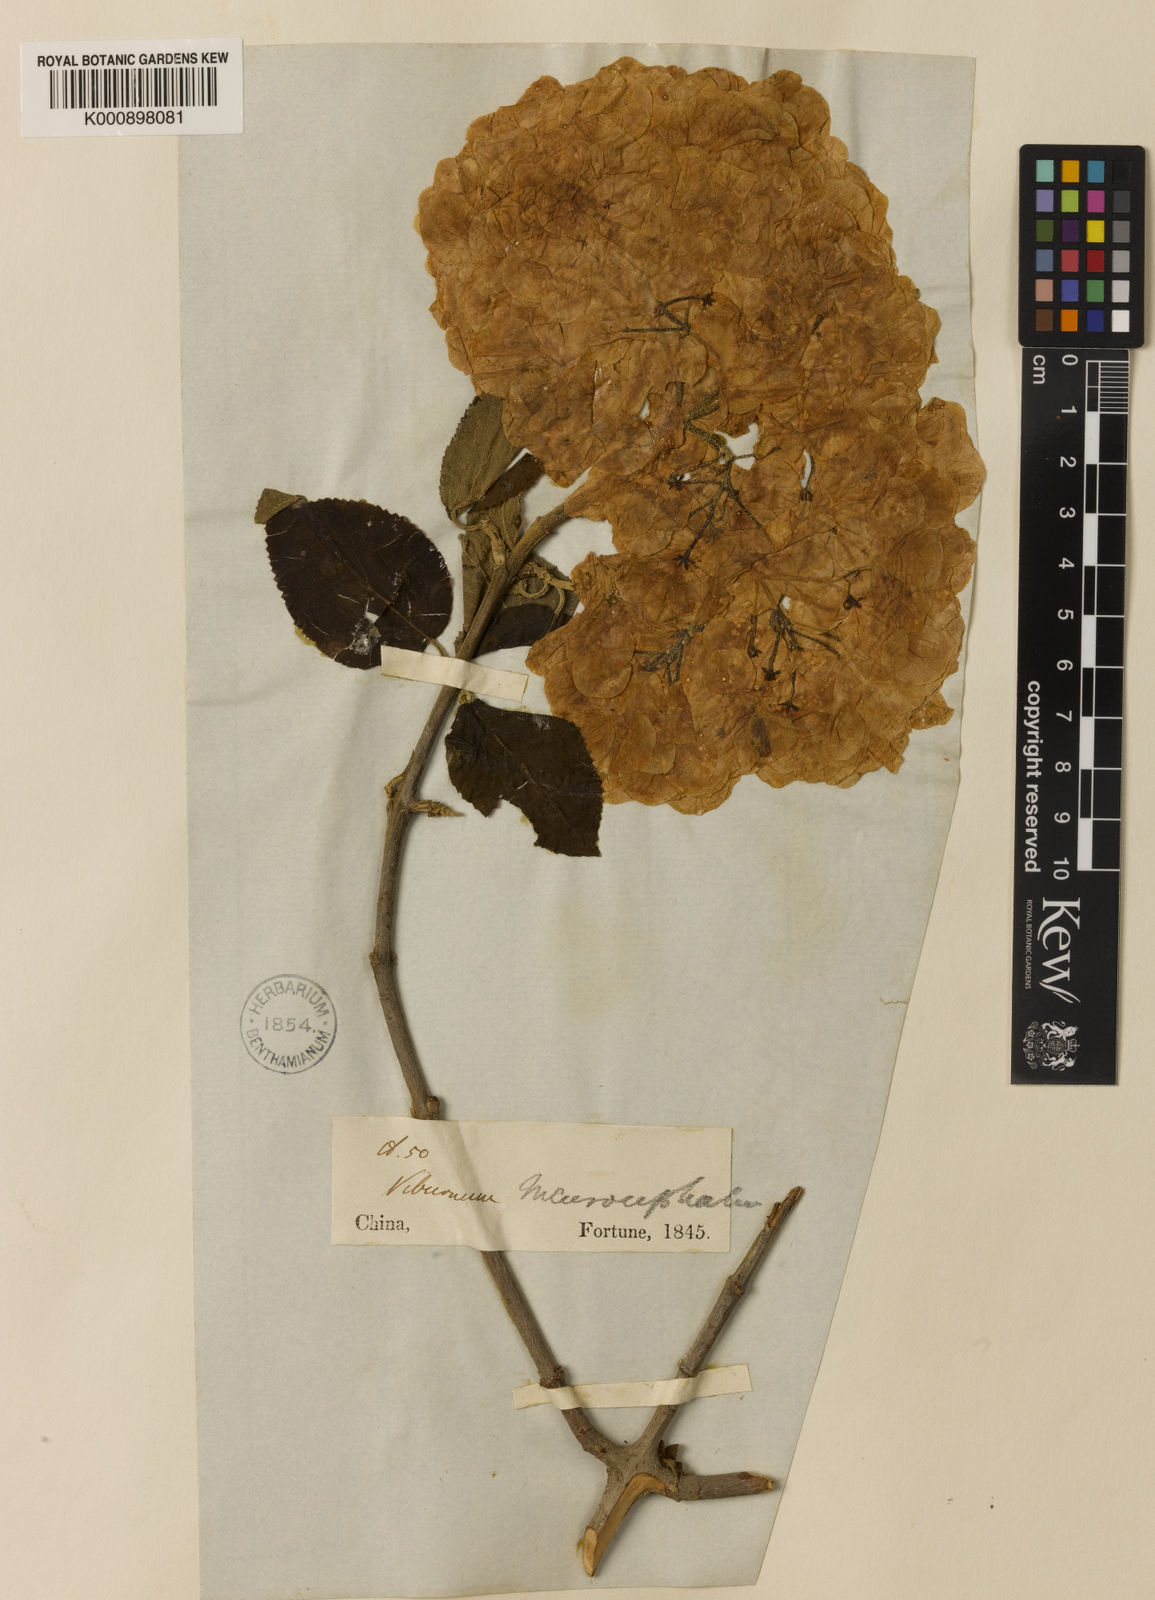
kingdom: Plantae
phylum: Tracheophyta
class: Magnoliopsida
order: Dipsacales
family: Viburnaceae
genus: Viburnum
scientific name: Viburnum macrocephalum
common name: Chinese snowball viburnum
